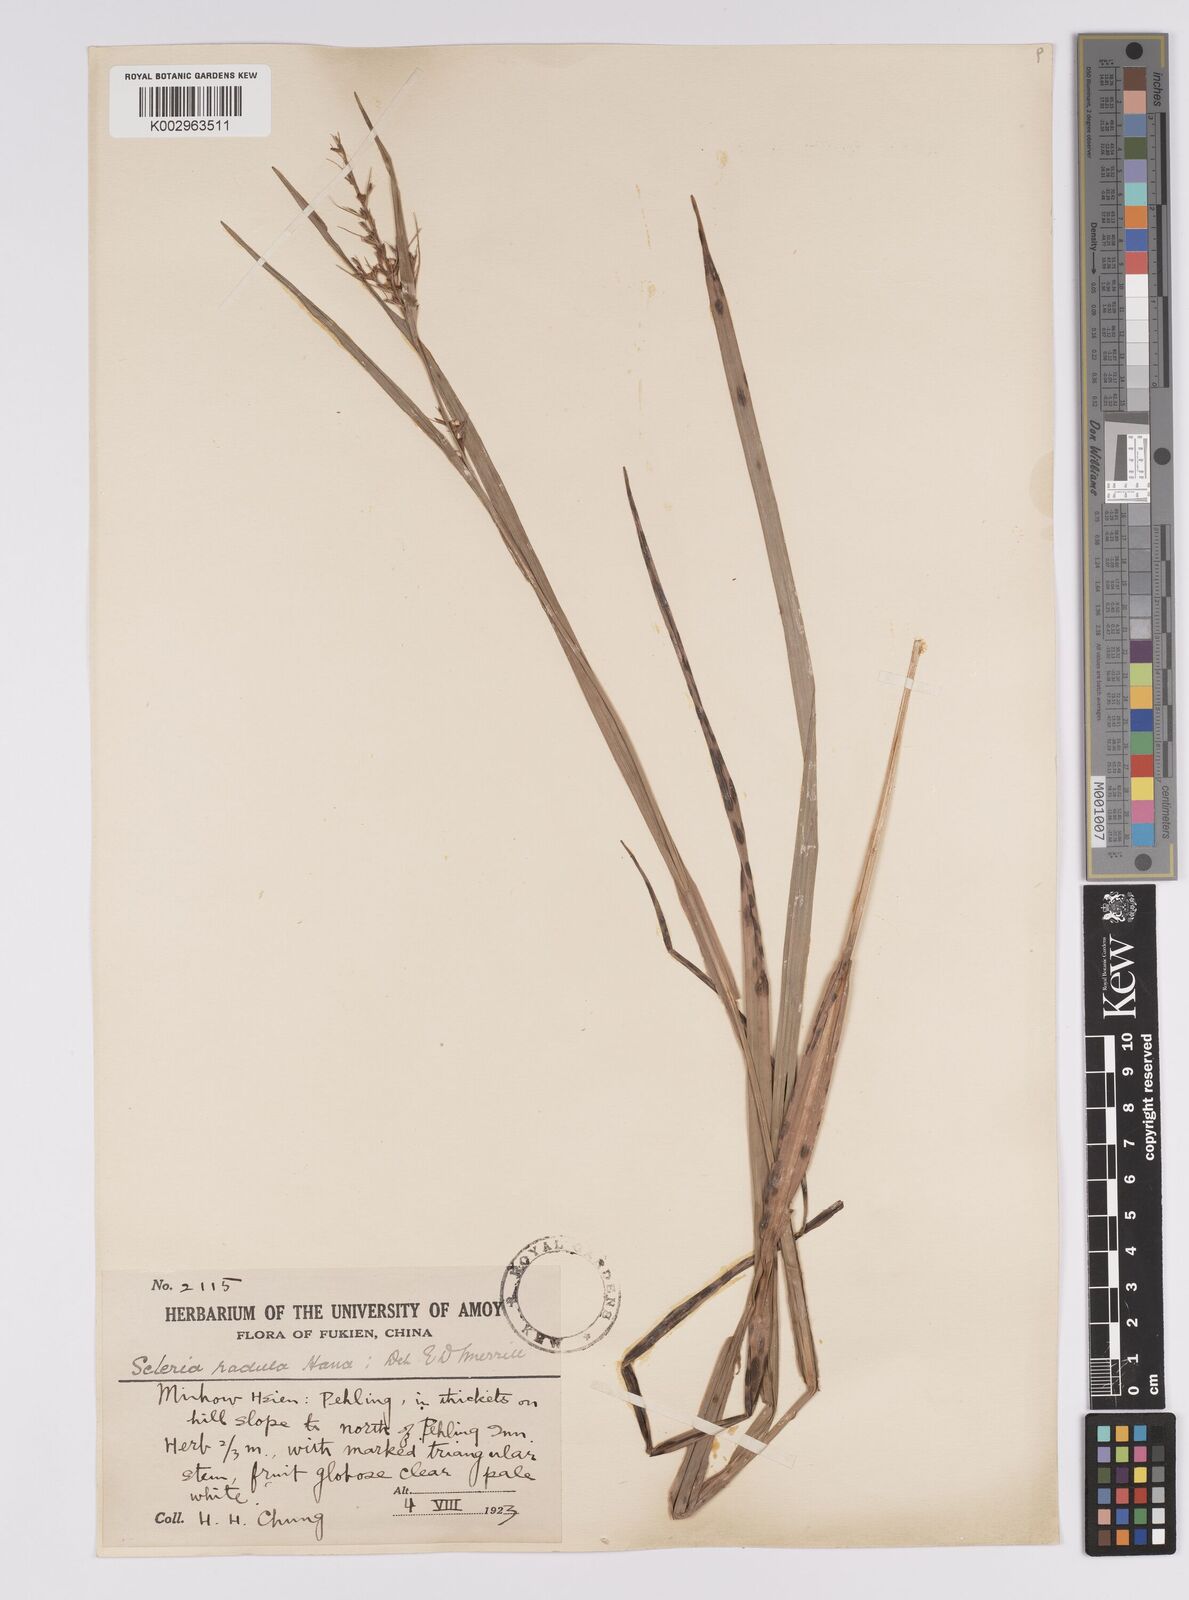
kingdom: Plantae
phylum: Tracheophyta
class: Liliopsida
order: Poales
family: Cyperaceae
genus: Scleria
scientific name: Scleria radula
